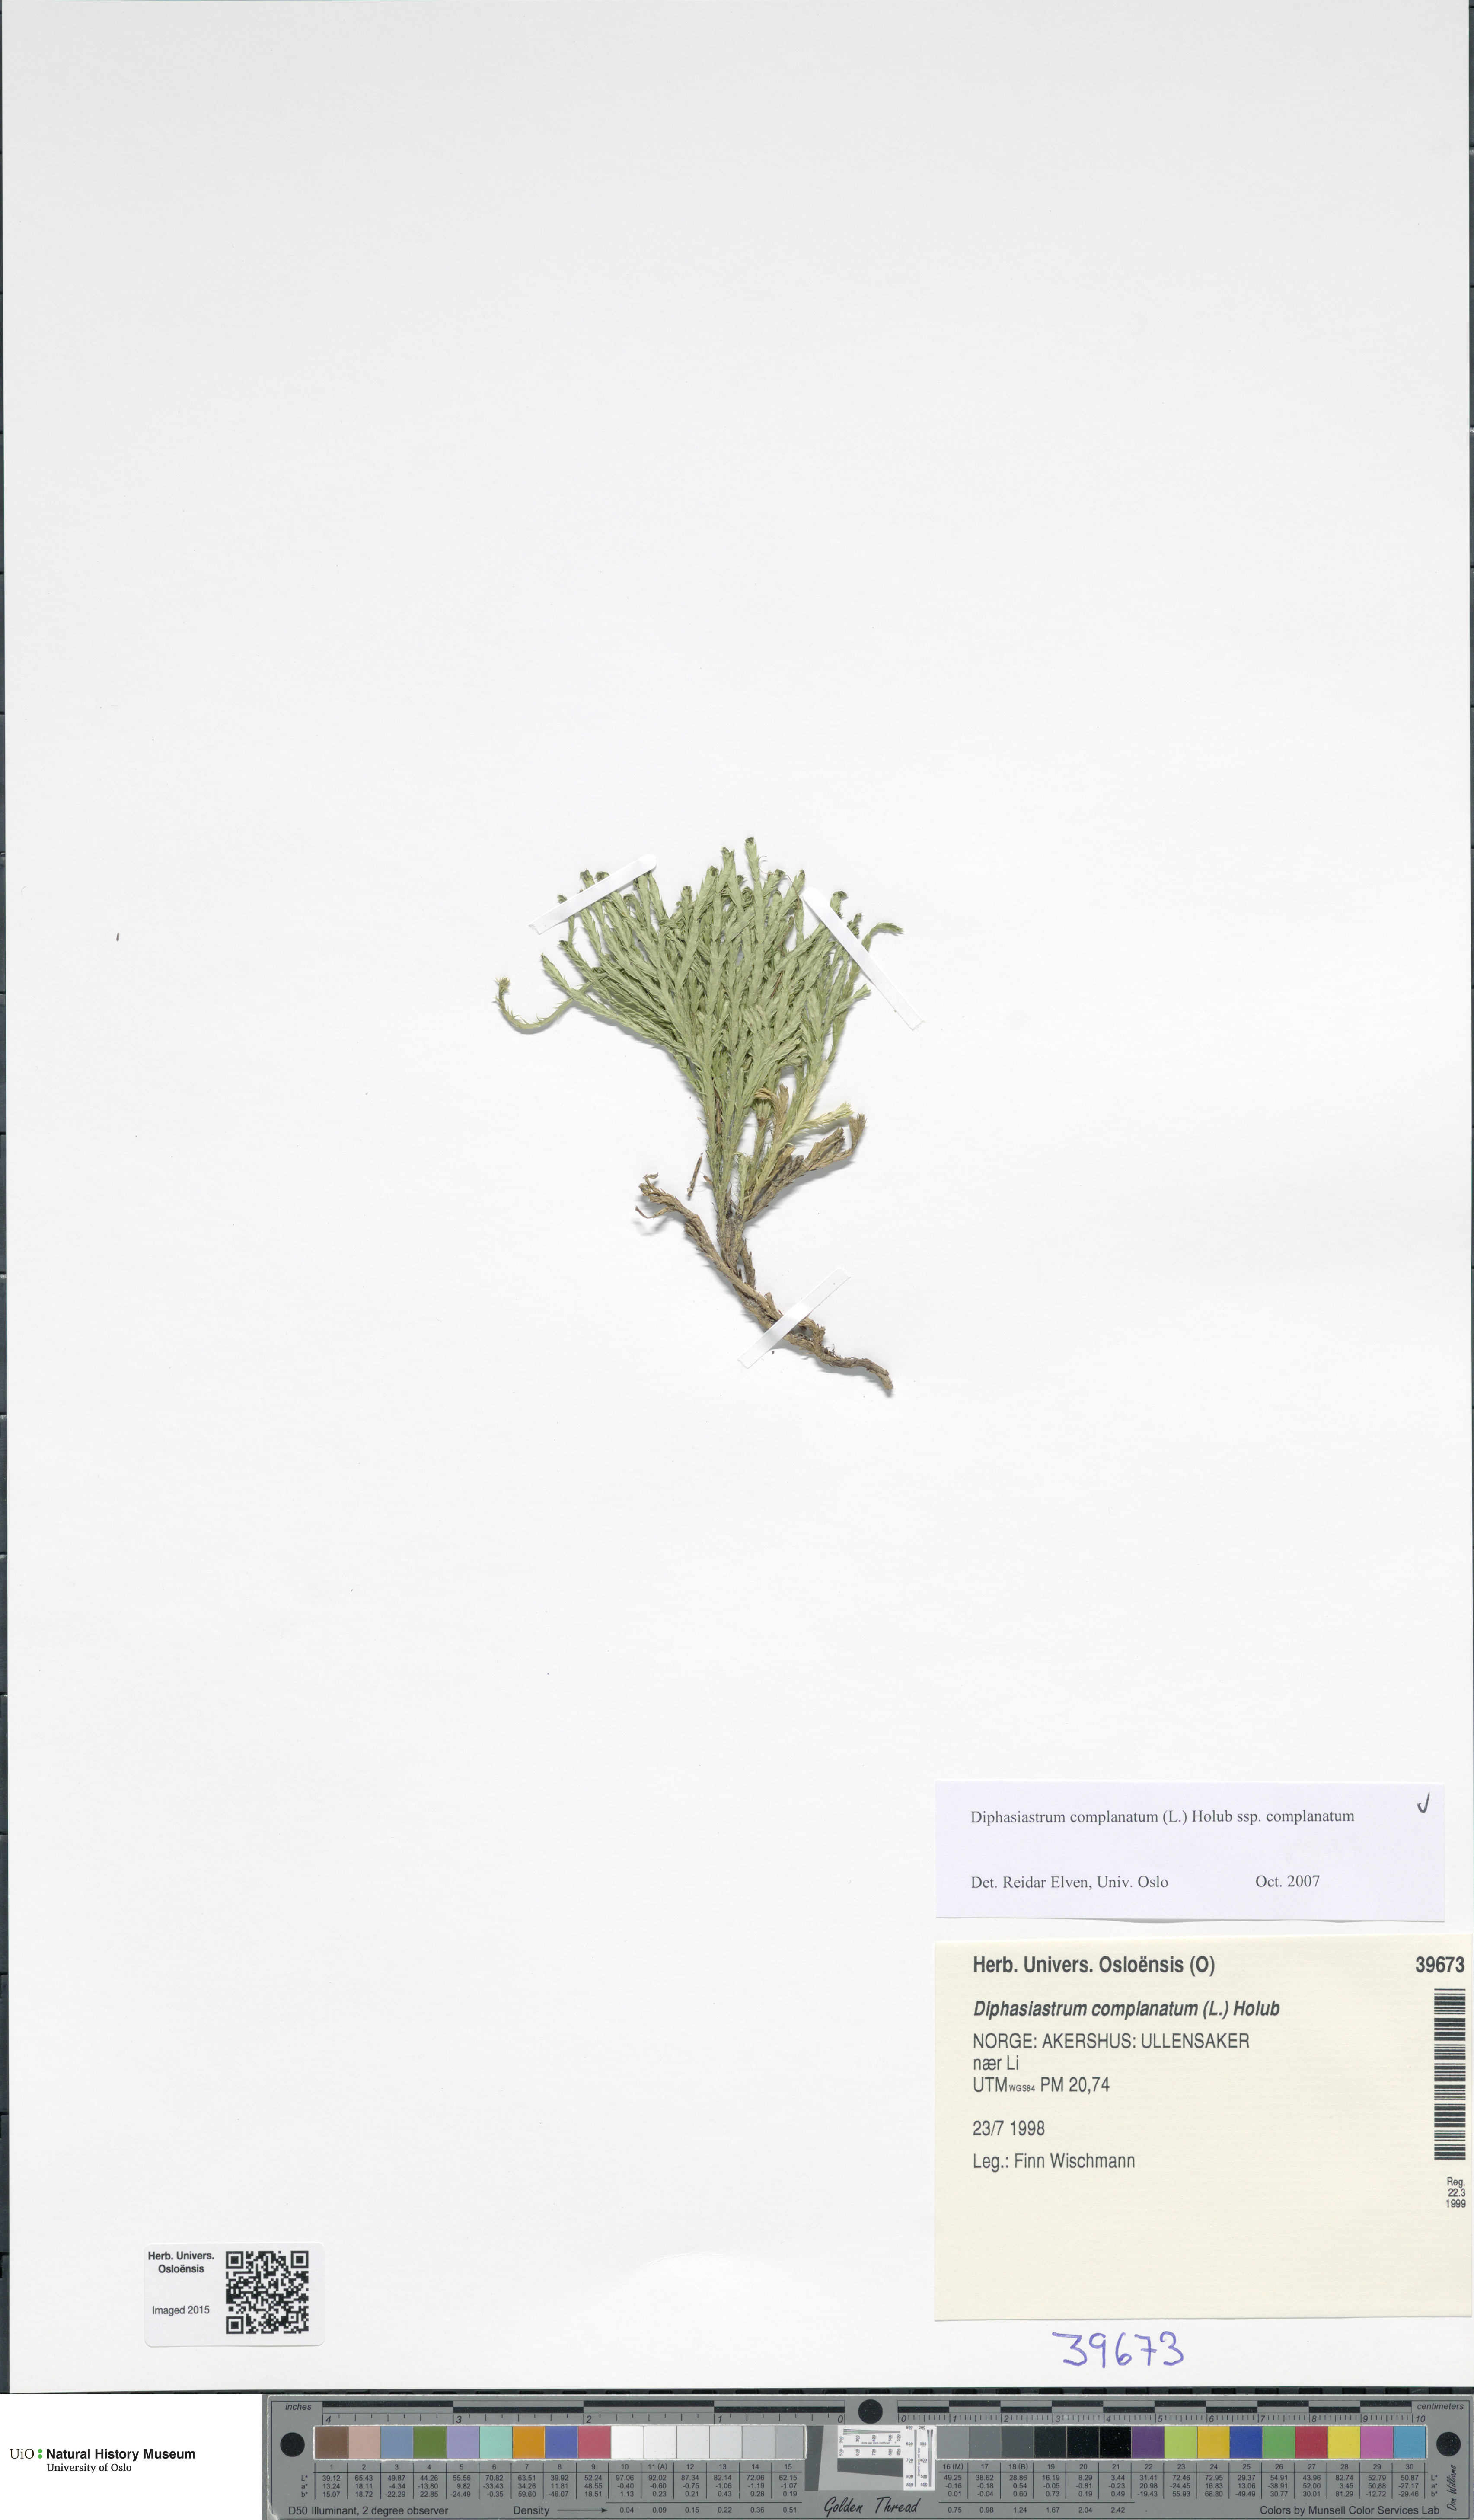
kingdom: Plantae
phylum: Tracheophyta
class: Lycopodiopsida
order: Lycopodiales
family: Lycopodiaceae
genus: Diphasiastrum
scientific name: Diphasiastrum complanatum
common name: Northern running-pine
